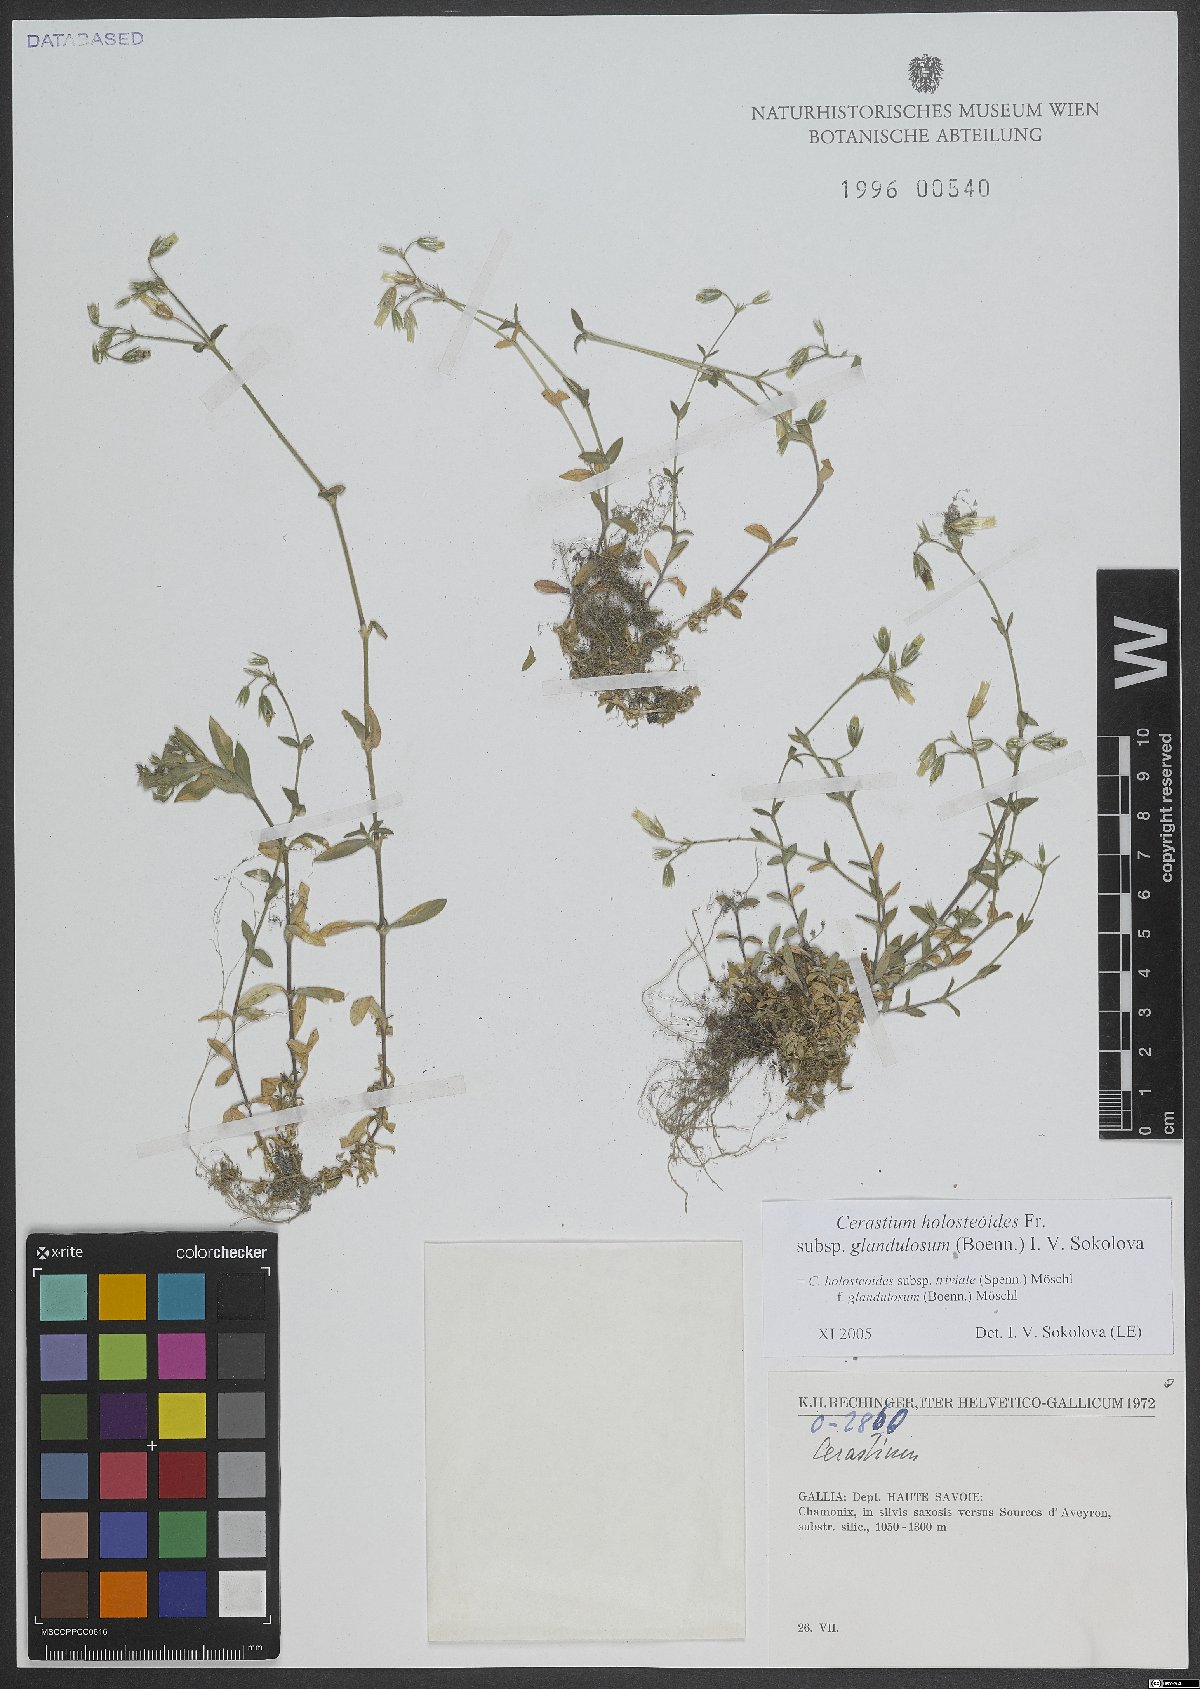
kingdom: Plantae
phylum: Tracheophyta
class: Magnoliopsida
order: Caryophyllales
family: Caryophyllaceae
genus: Cerastium
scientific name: Cerastium holosteoides
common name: Big chickweed
